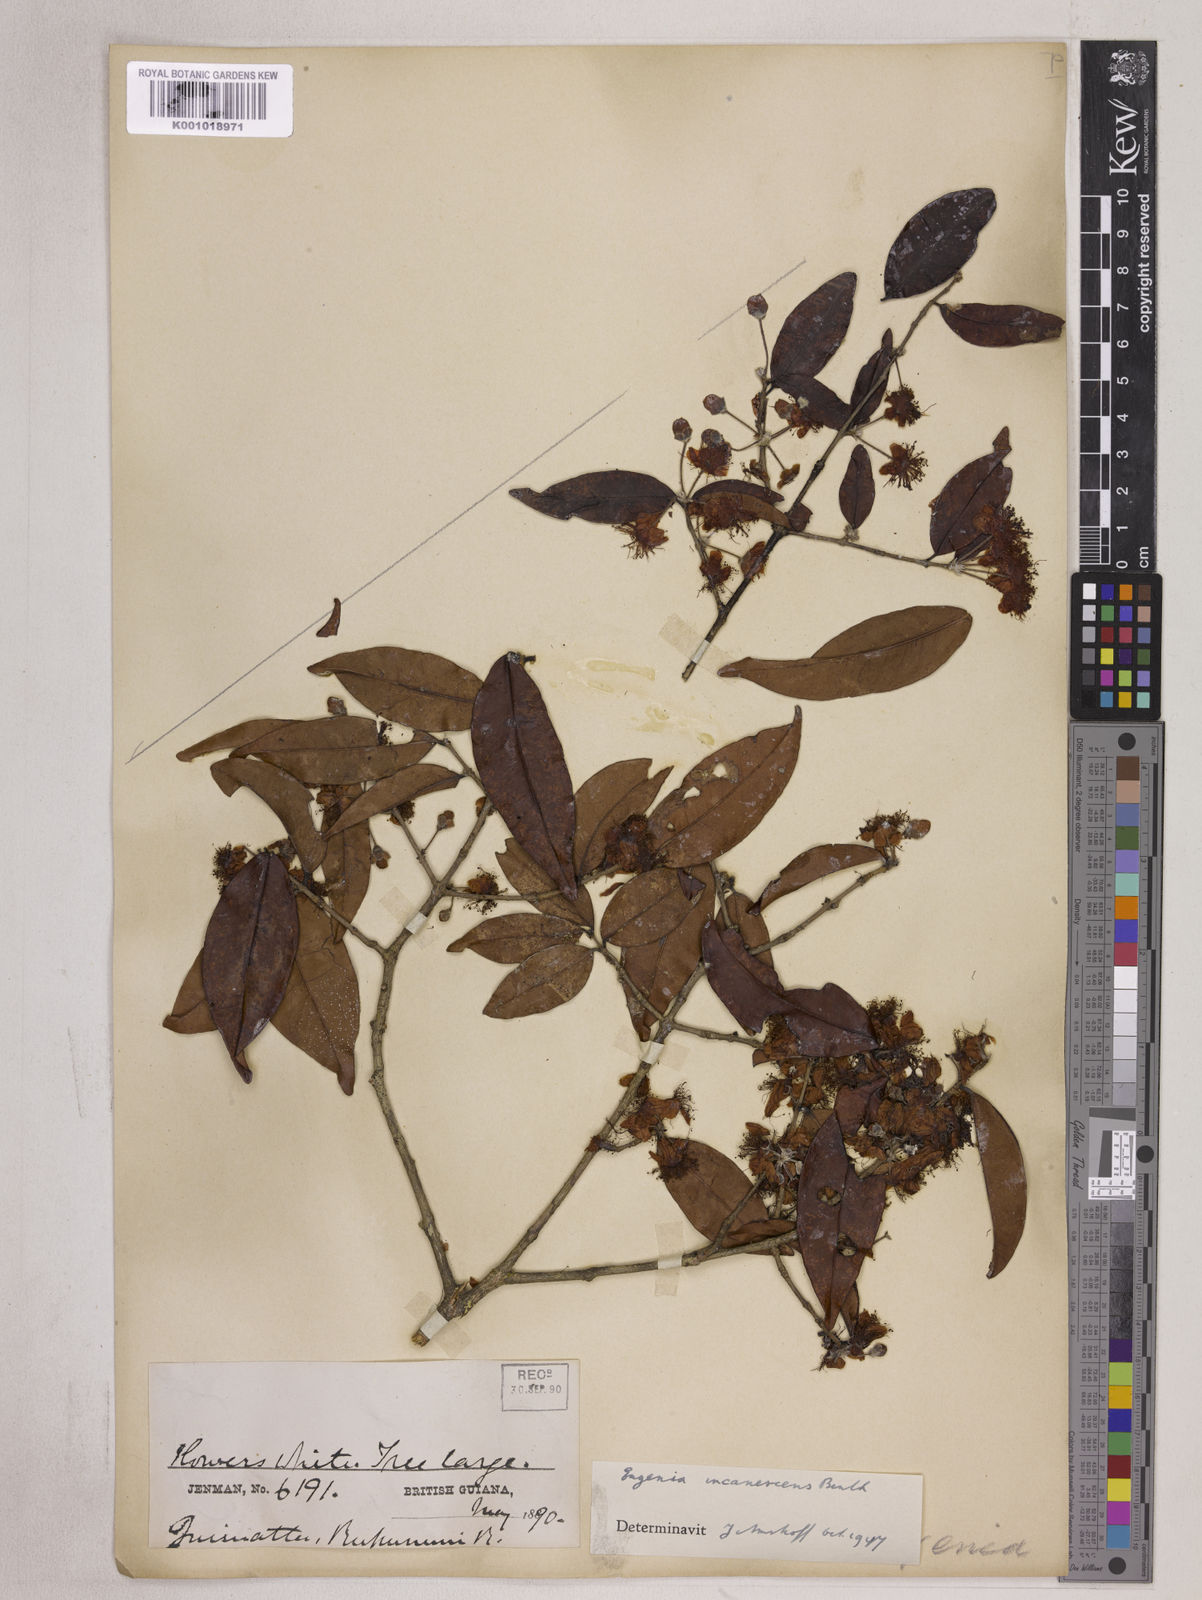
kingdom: Plantae
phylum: Tracheophyta
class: Magnoliopsida
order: Myrtales
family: Myrtaceae
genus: Eugenia
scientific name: Eugenia incanescens
